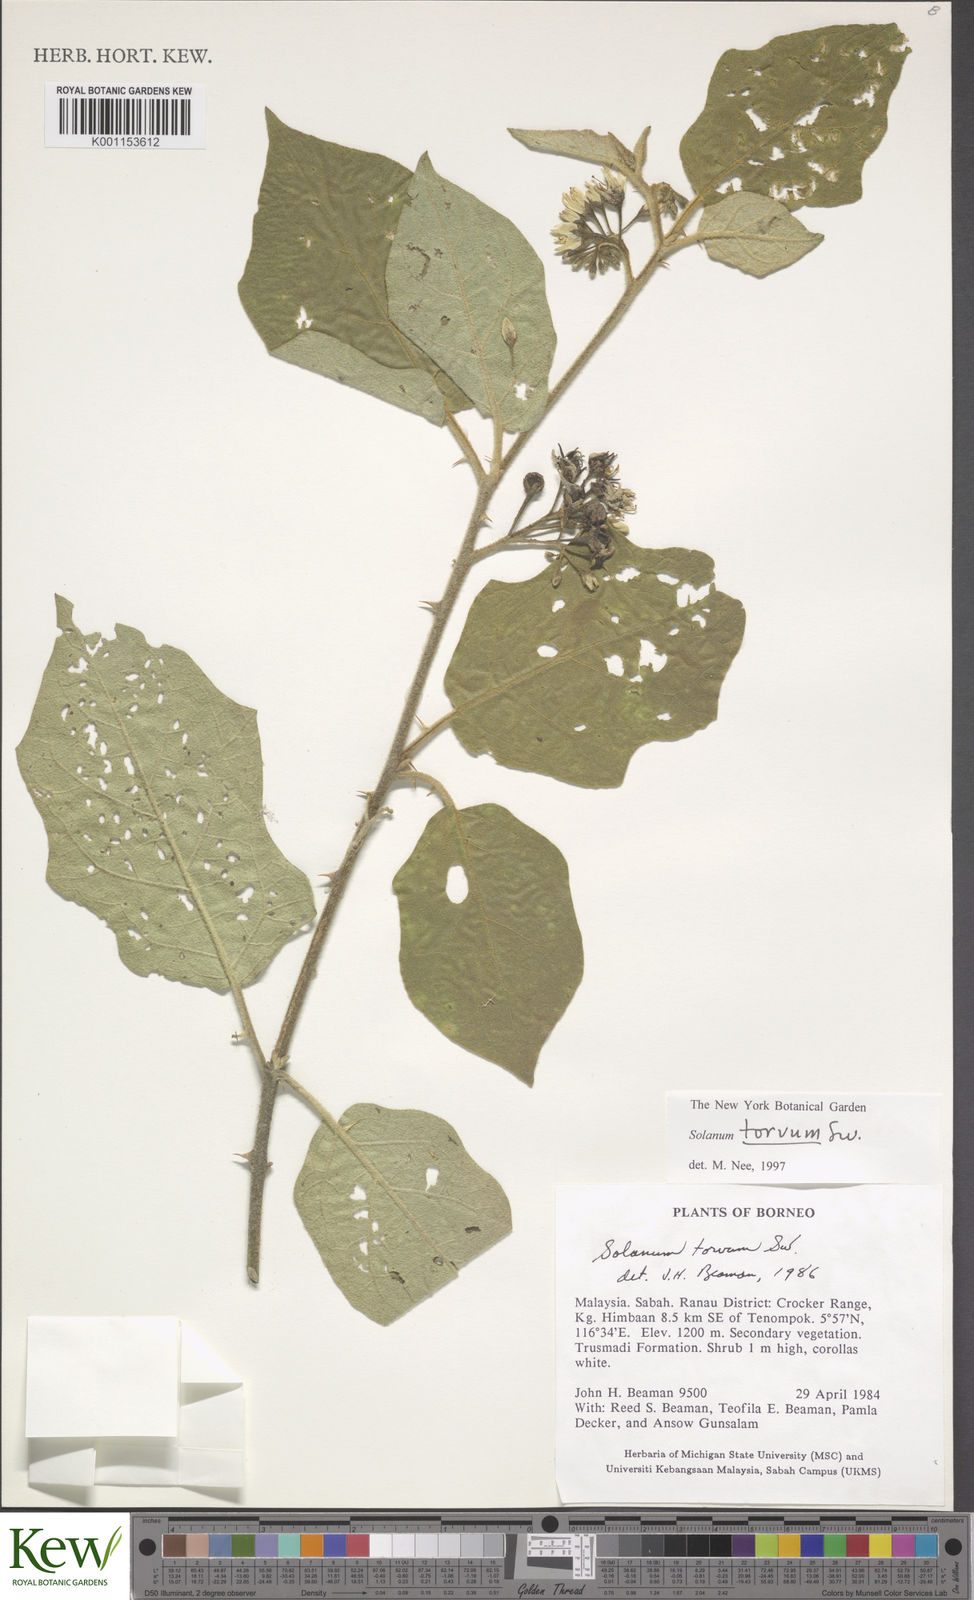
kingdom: Plantae
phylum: Tracheophyta
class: Magnoliopsida
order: Solanales
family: Solanaceae
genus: Solanum
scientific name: Solanum torvum
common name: Turkey berry
